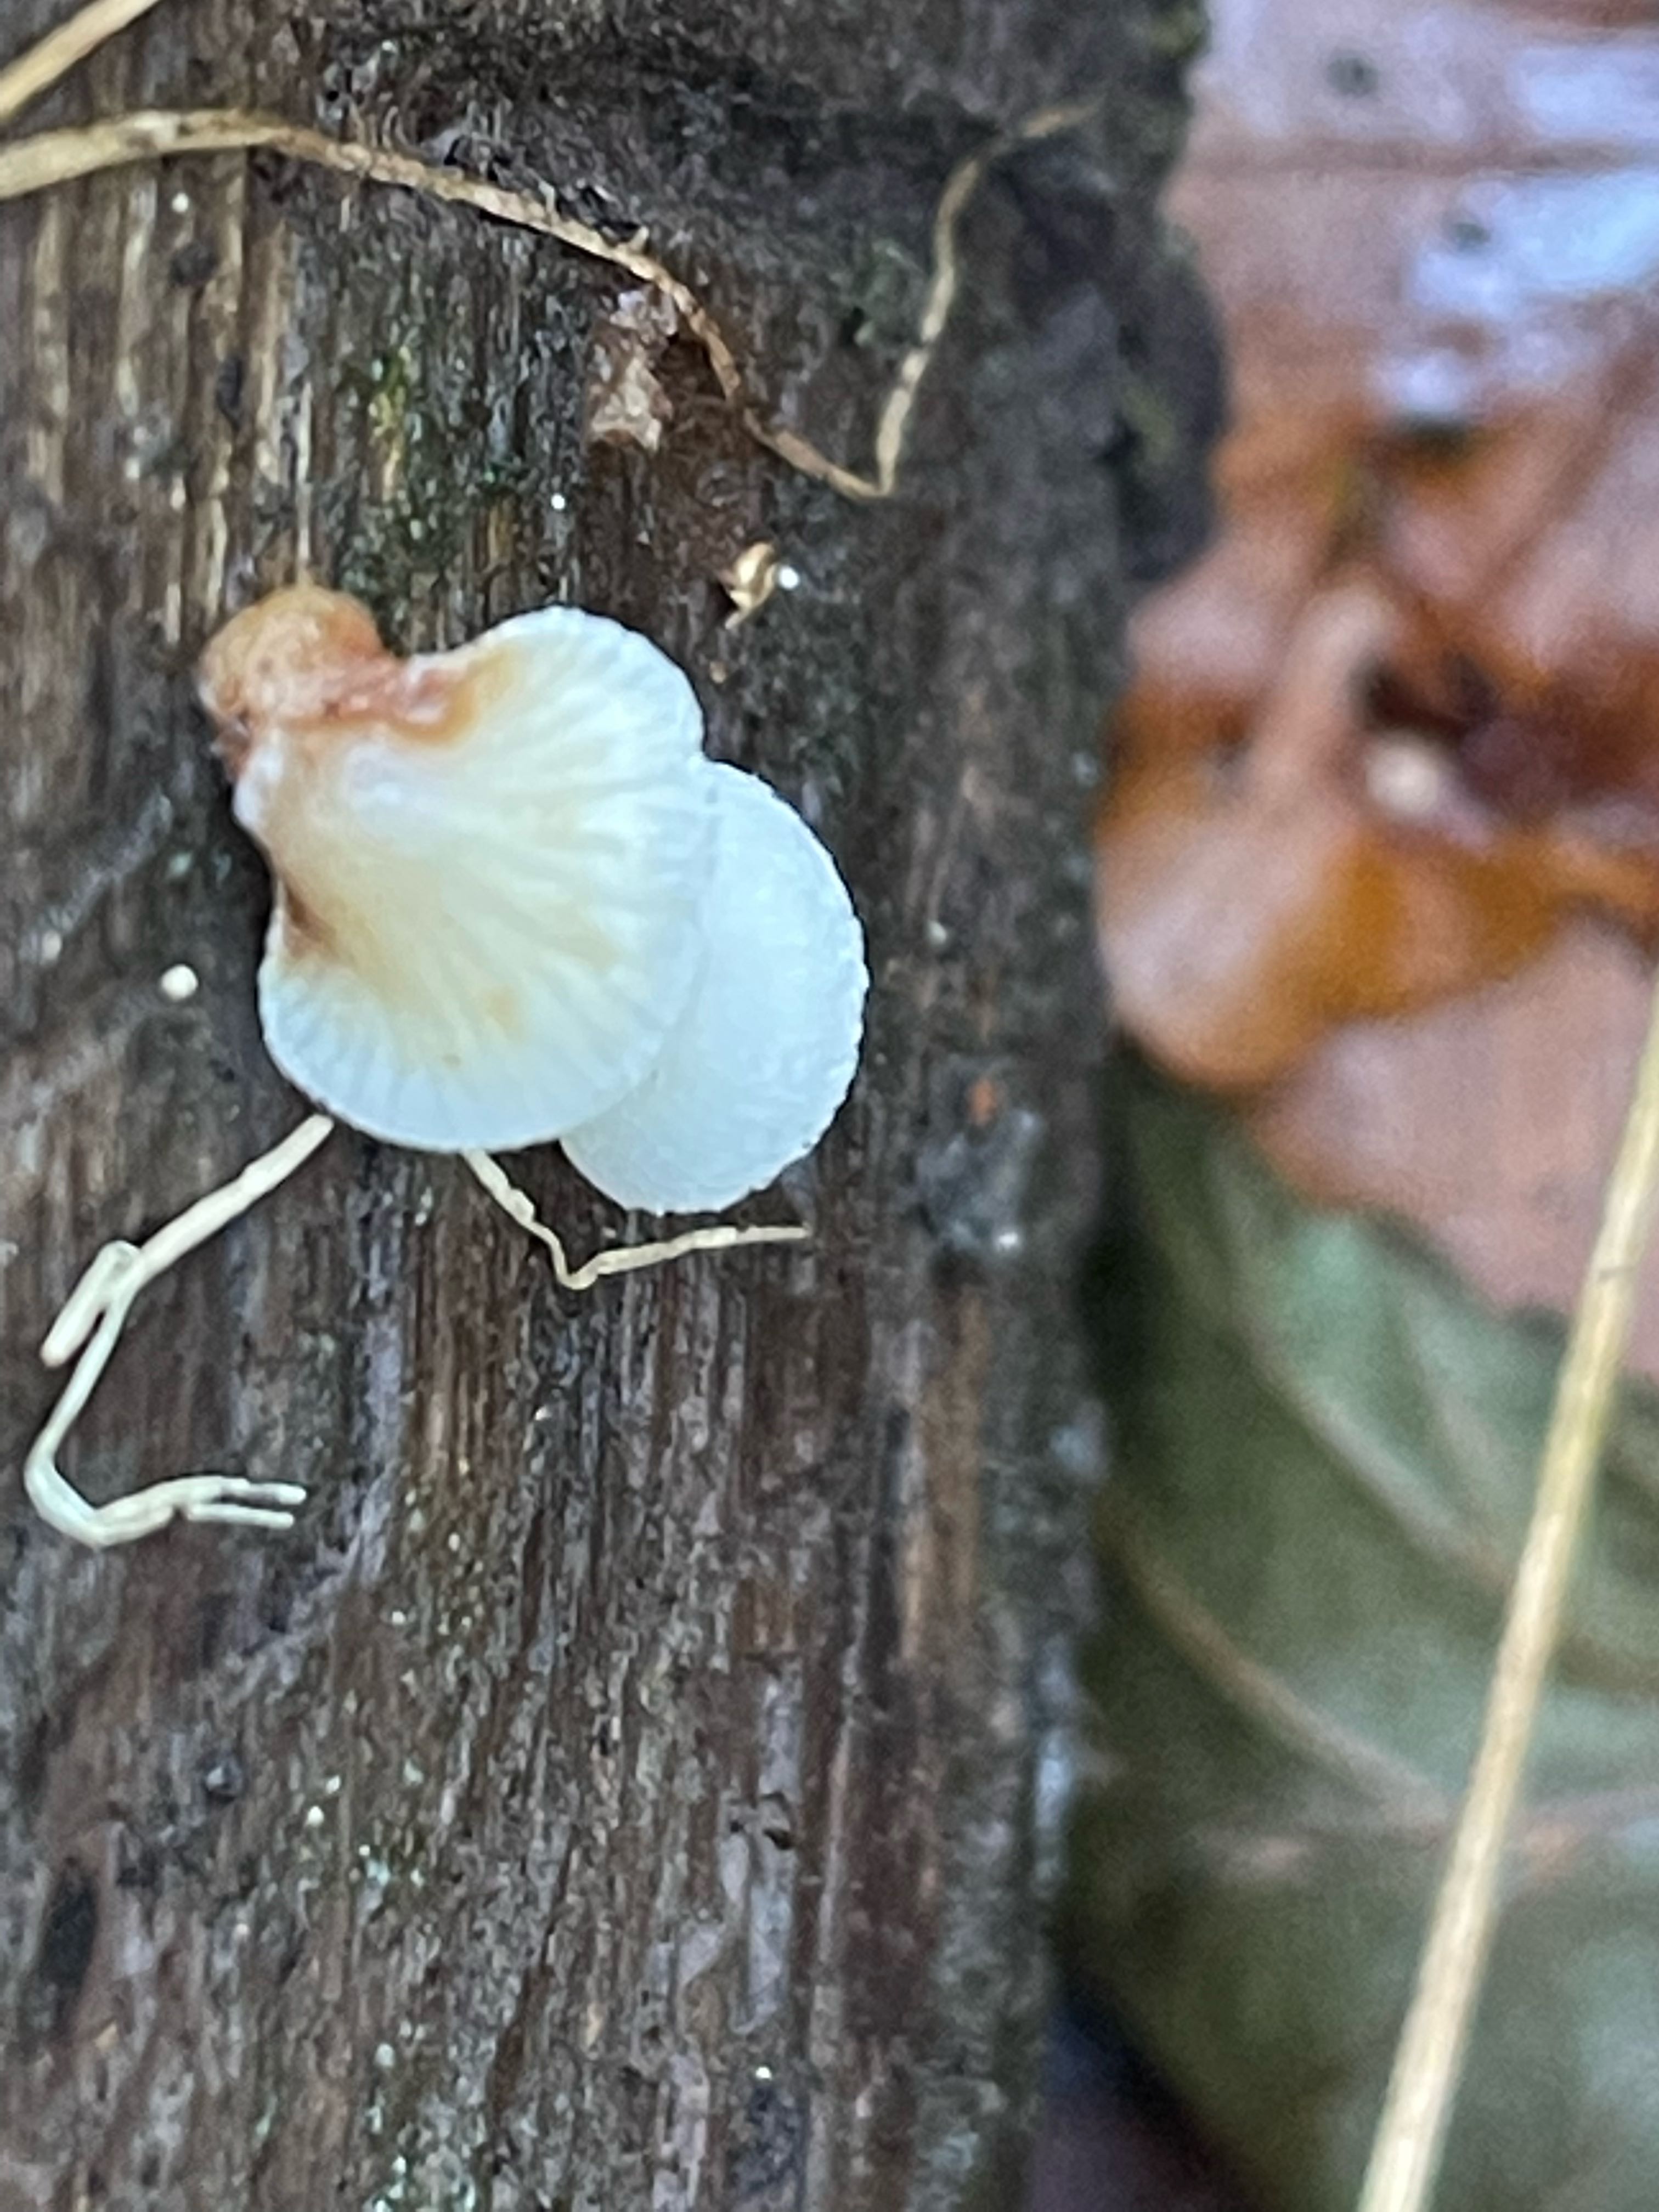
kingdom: Fungi
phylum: Basidiomycota
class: Agaricomycetes
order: Agaricales
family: Crepidotaceae
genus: Crepidotus
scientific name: Crepidotus mollis
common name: blød muslingesvamp
